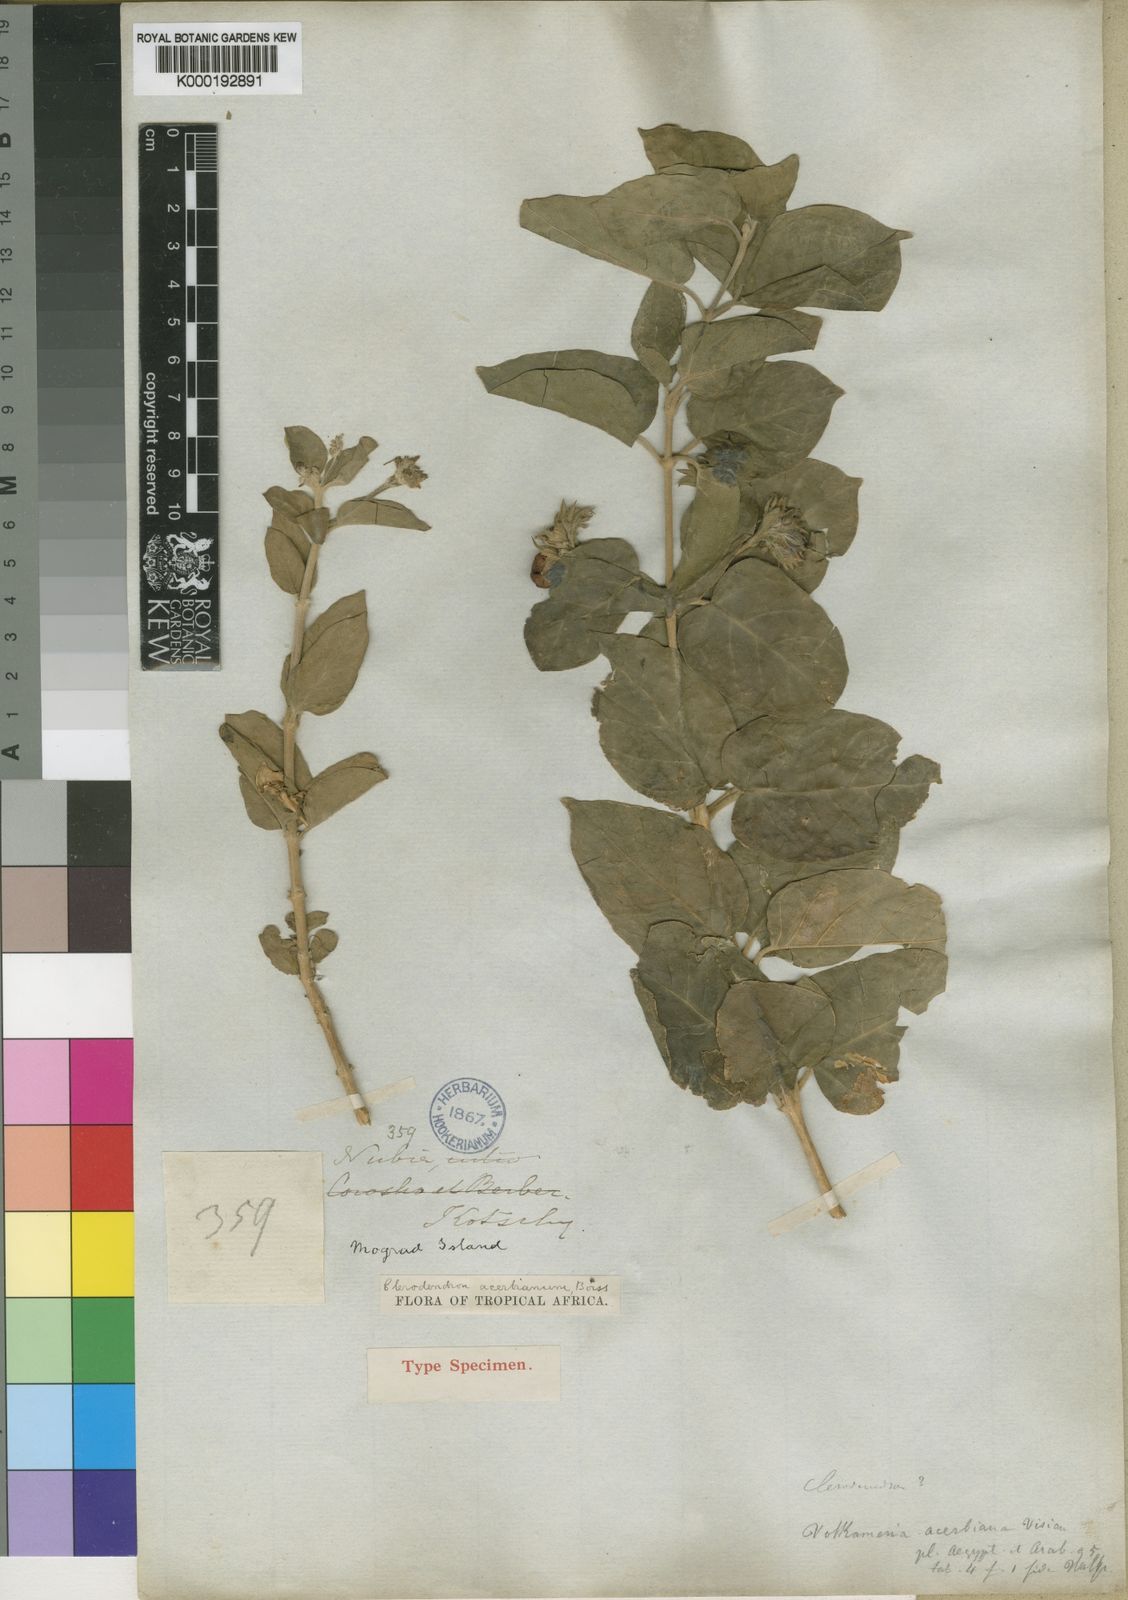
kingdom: Plantae
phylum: Tracheophyta
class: Magnoliopsida
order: Lamiales
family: Lamiaceae
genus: Volkameria
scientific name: Volkameria acerbiana
